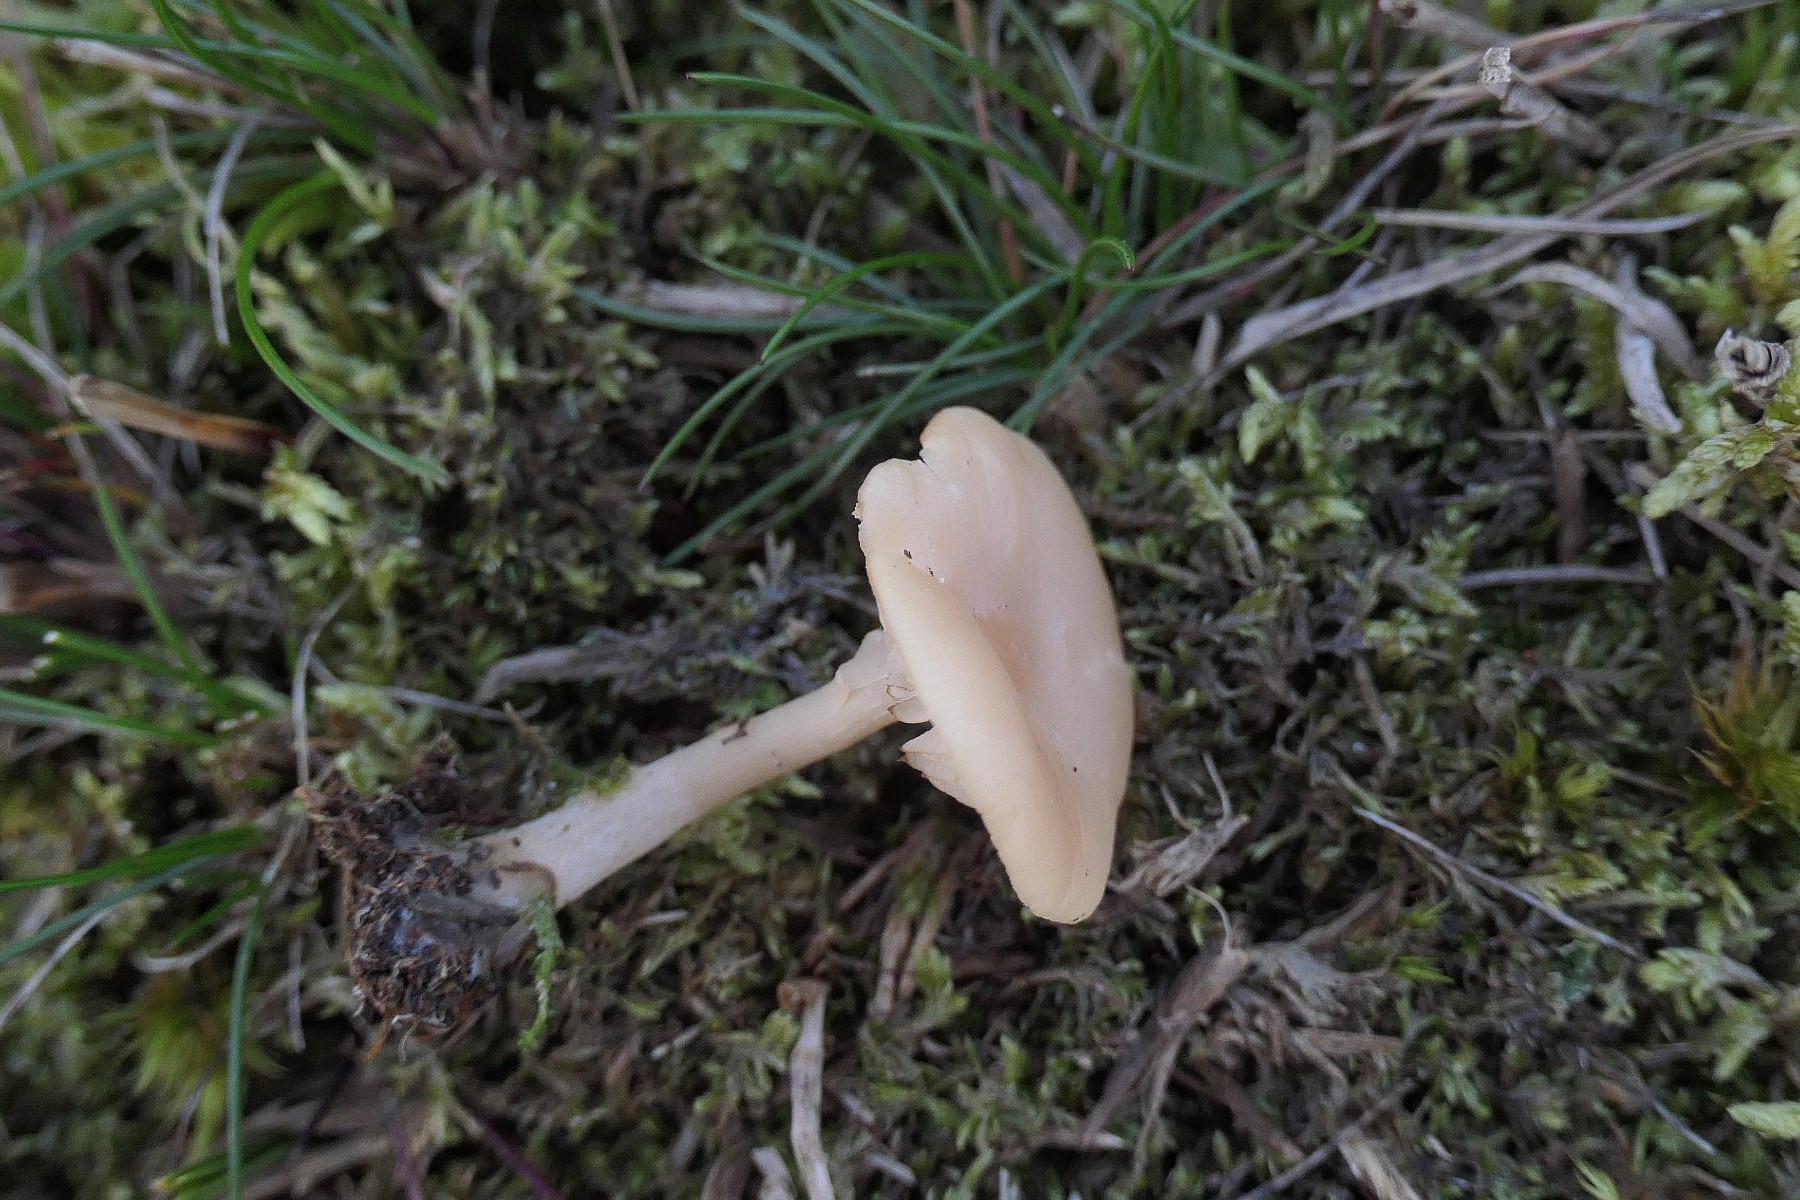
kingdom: Fungi
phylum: Basidiomycota
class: Agaricomycetes
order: Agaricales
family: Tricholomataceae
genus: Clitocybe
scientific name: Clitocybe agrestis
